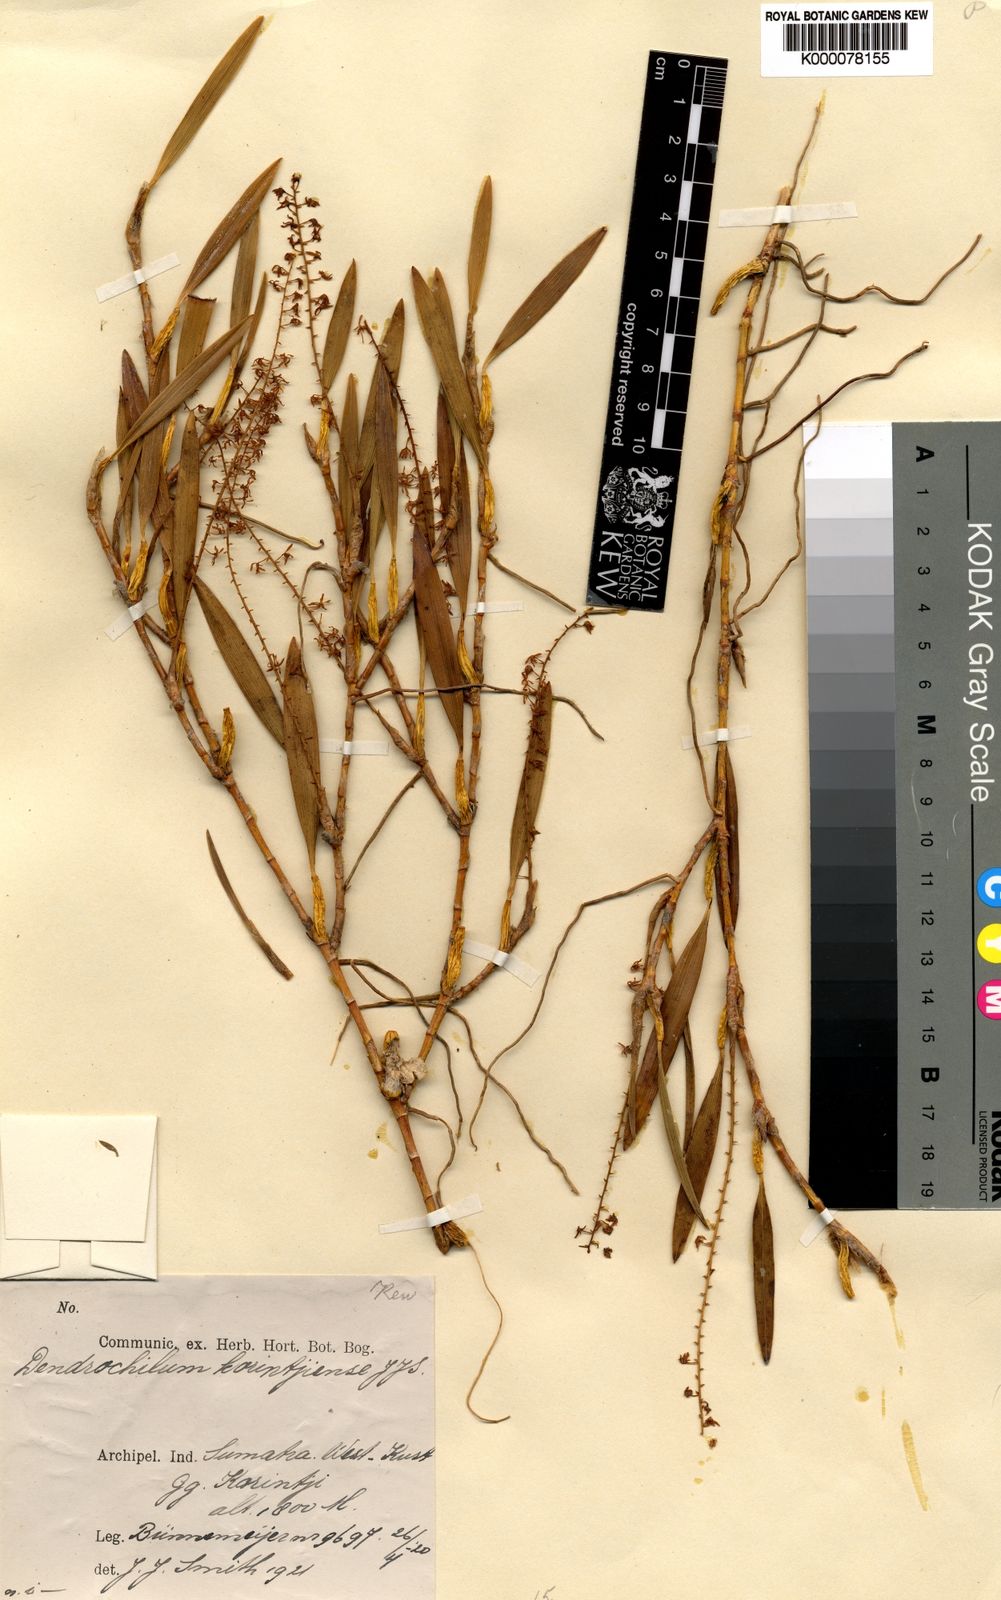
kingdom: Plantae
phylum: Tracheophyta
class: Liliopsida
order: Asparagales
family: Orchidaceae
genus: Coelogyne
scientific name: Coelogyne korintjiensis
